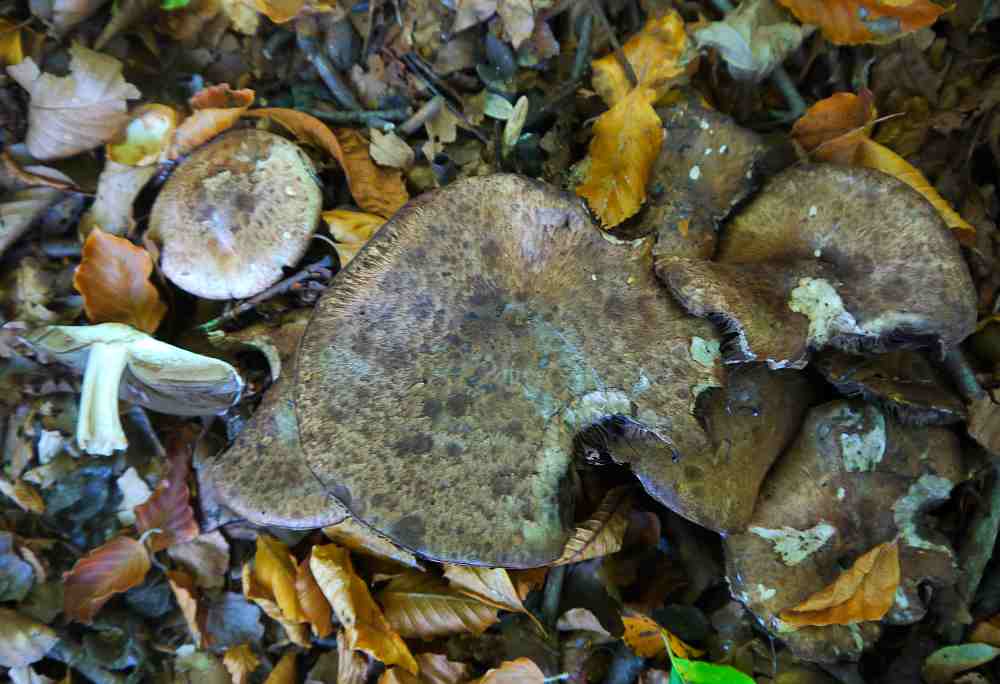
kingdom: Fungi
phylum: Basidiomycota
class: Agaricomycetes
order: Agaricales
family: Agaricaceae
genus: Agaricus
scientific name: Agaricus subperonatus
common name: knippe-champignon
